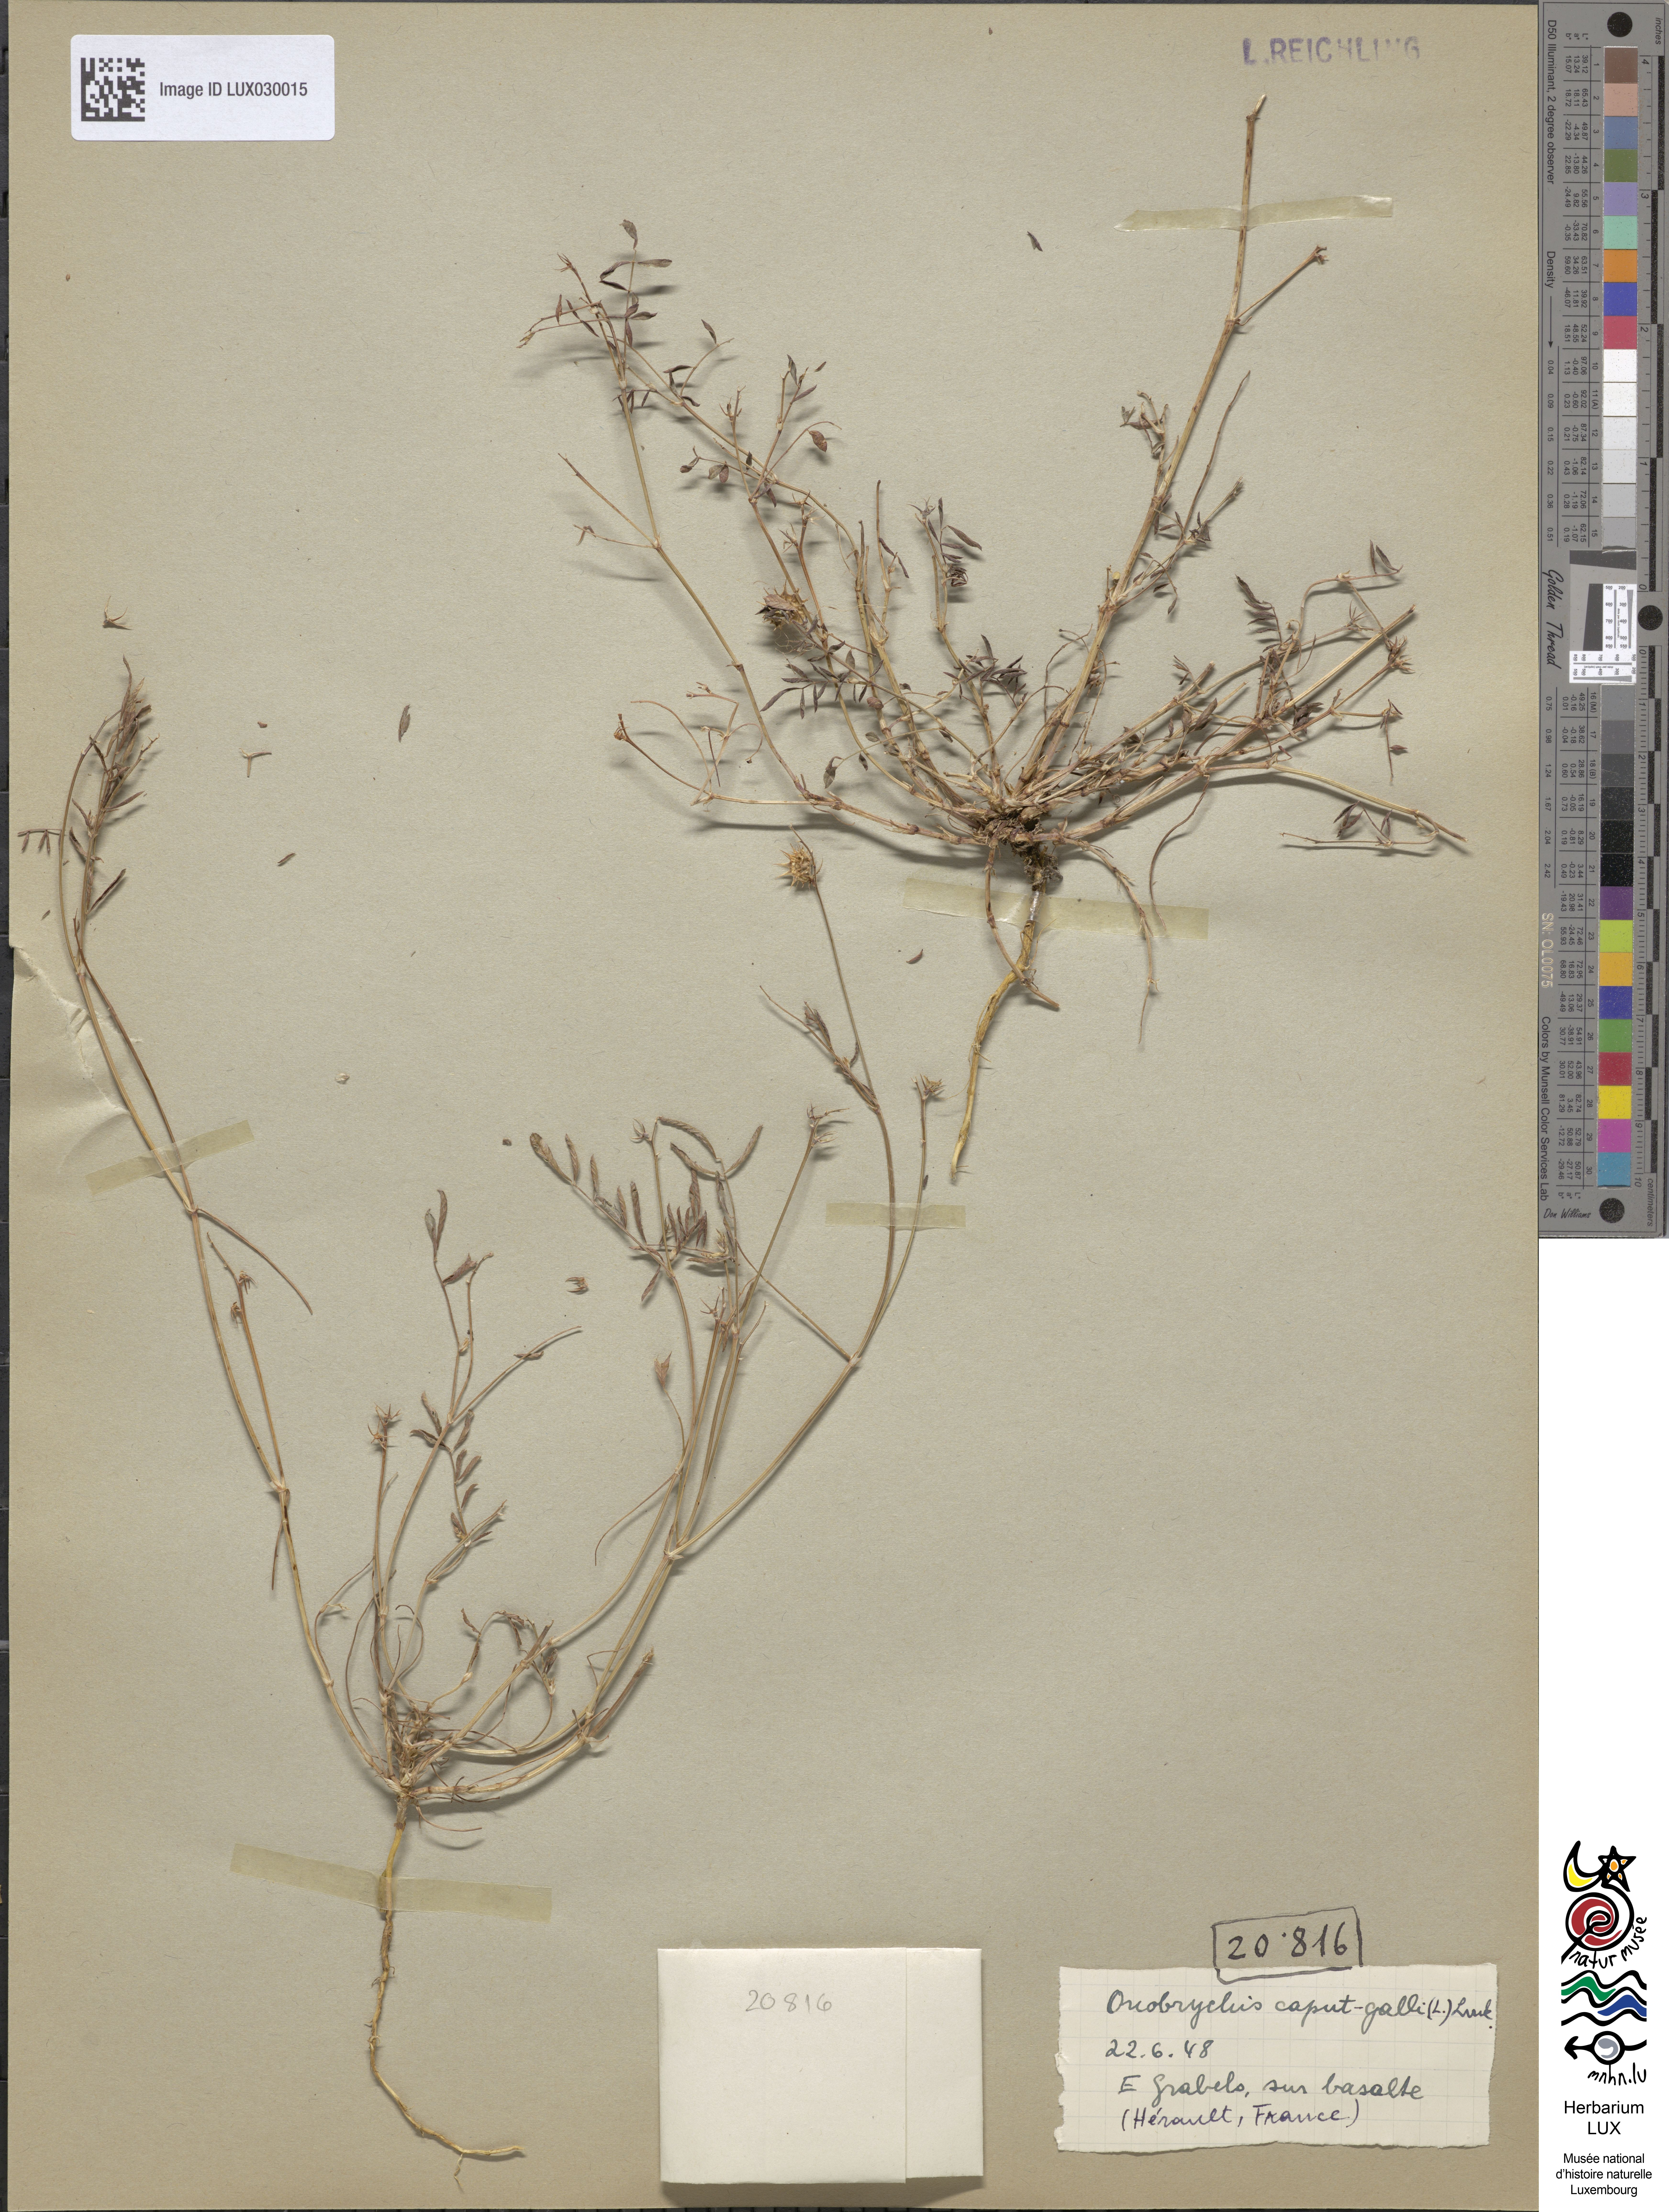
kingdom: Plantae
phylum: Tracheophyta
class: Magnoliopsida
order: Fabales
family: Fabaceae
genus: Onobrychis
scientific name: Onobrychis caput-galli
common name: Cockscomb sainfoin
